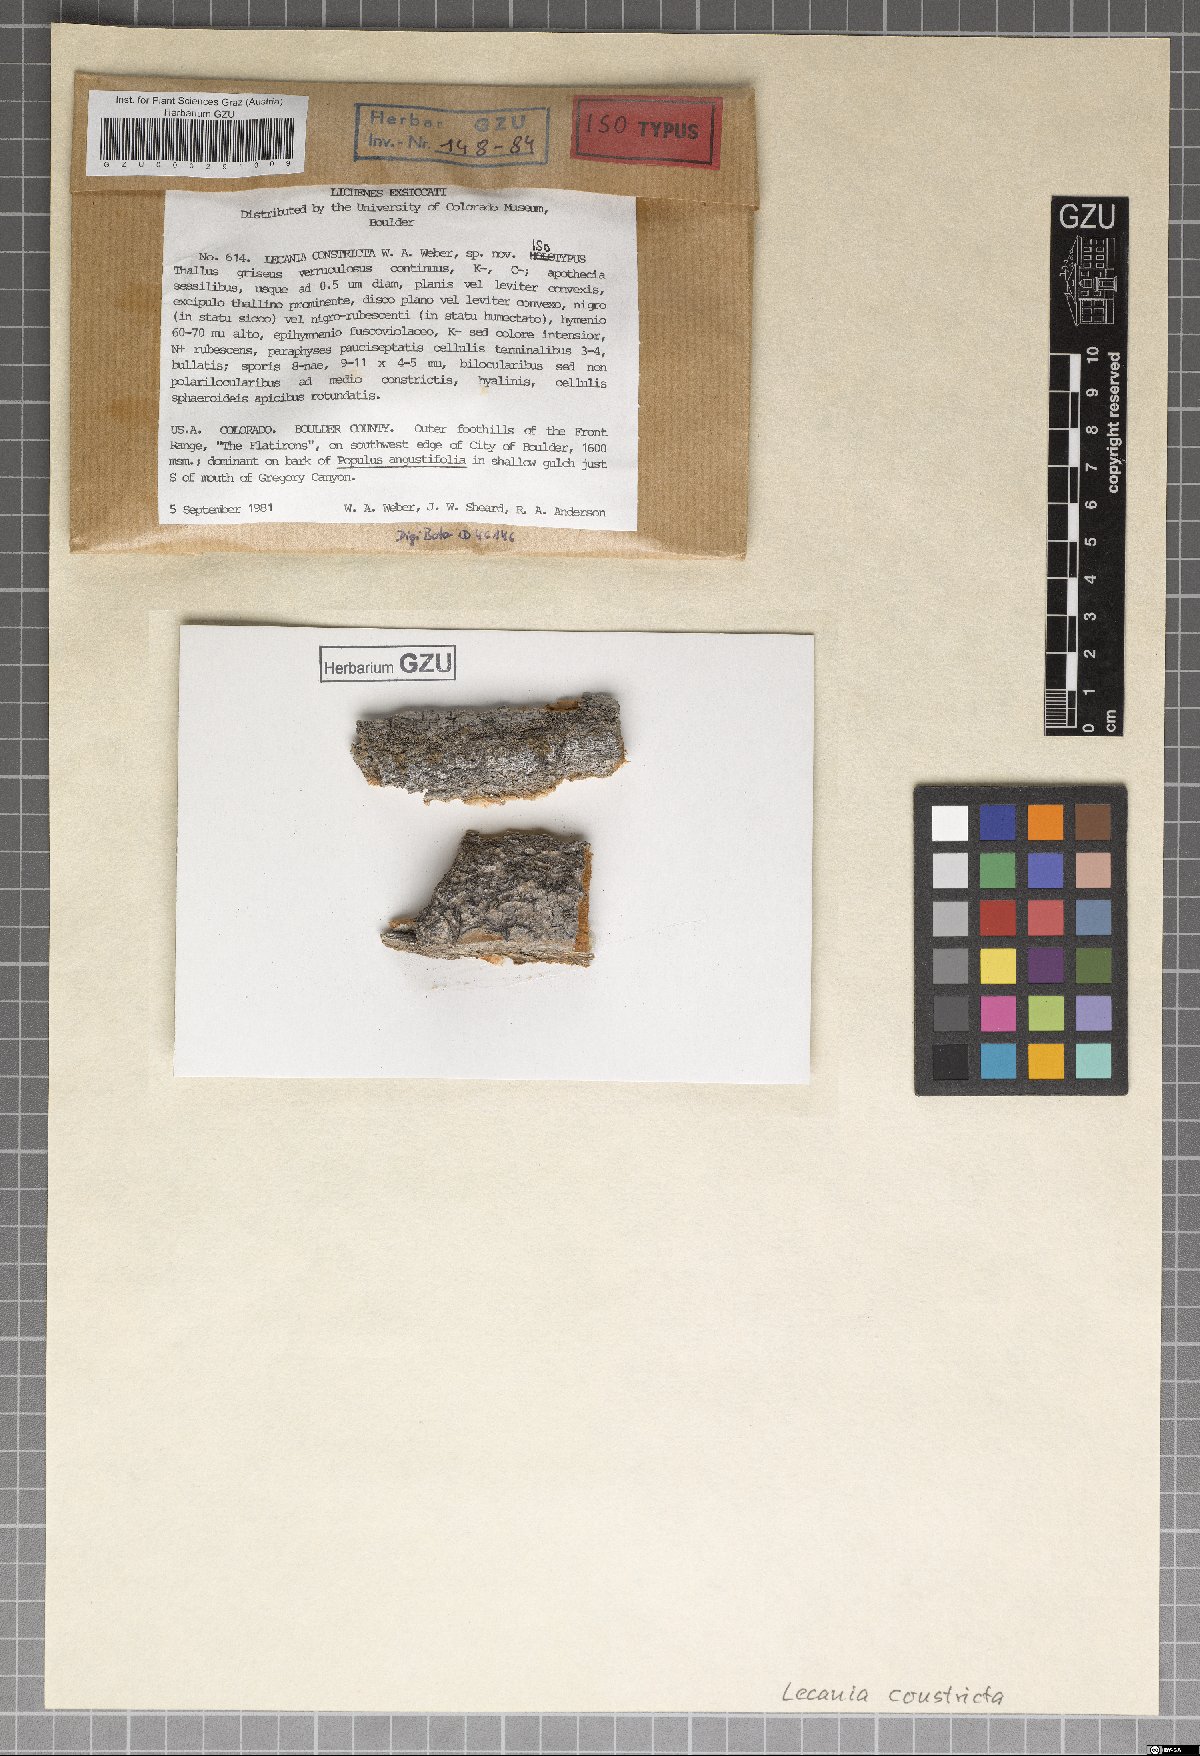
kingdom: Fungi
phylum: Ascomycota
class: Lecanoromycetes
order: Lecanorales
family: Ramalinaceae
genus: Lecania
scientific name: Lecania constricta
